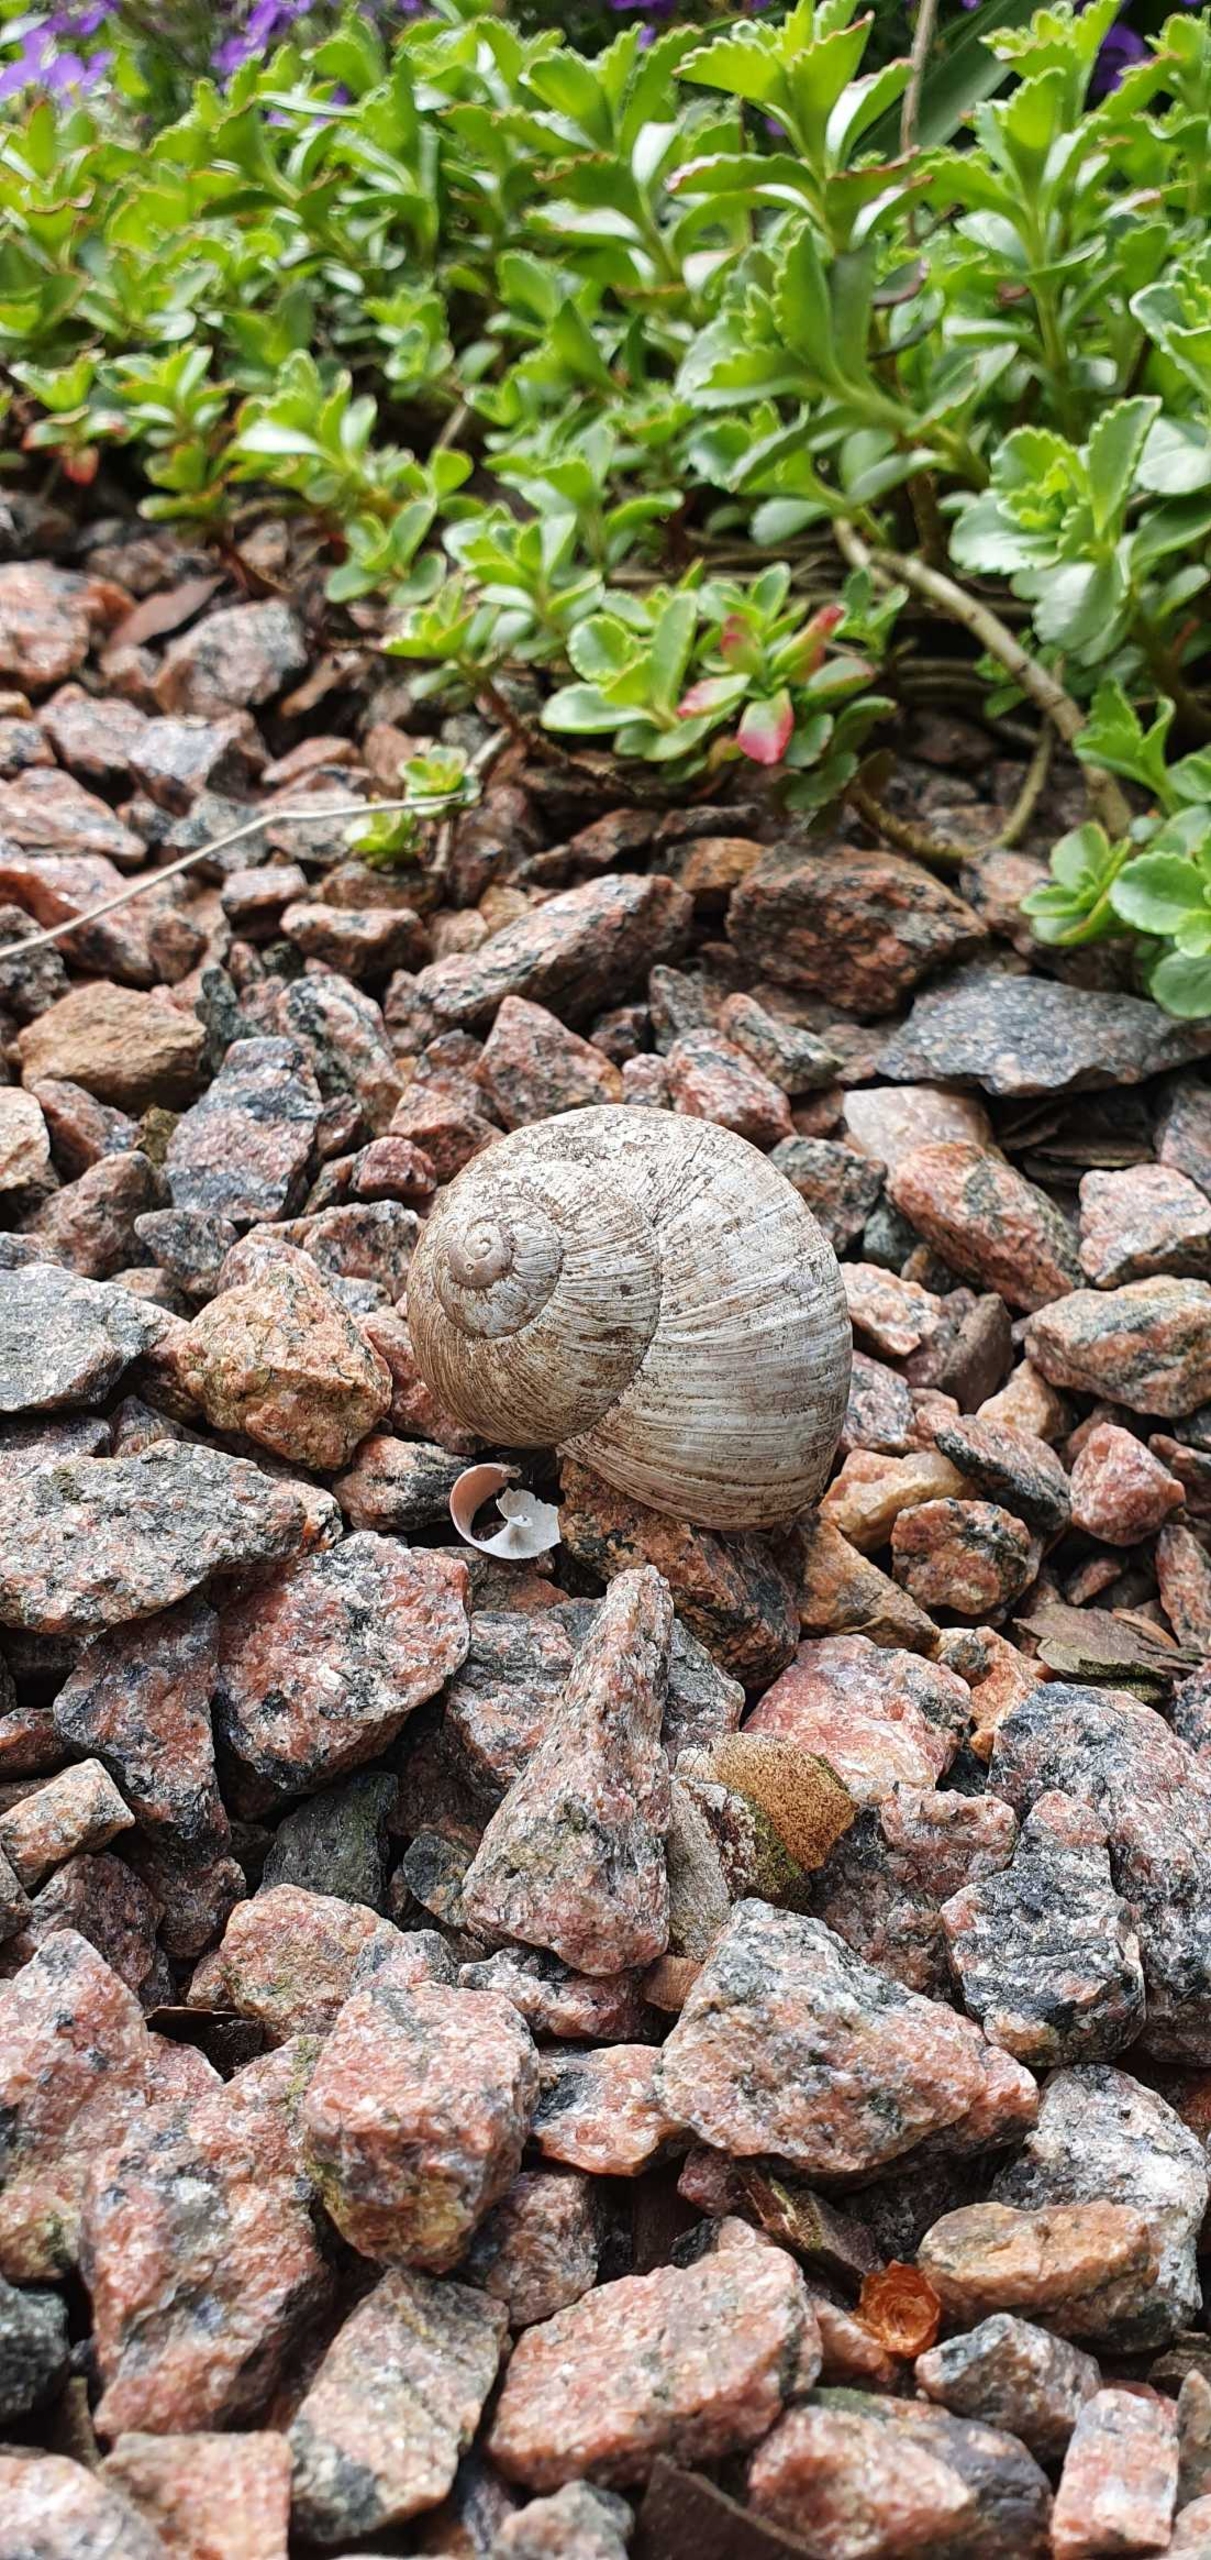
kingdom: Animalia
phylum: Mollusca
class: Gastropoda
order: Stylommatophora
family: Helicidae
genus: Helix
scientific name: Helix pomatia
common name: Vinbjergsnegl
